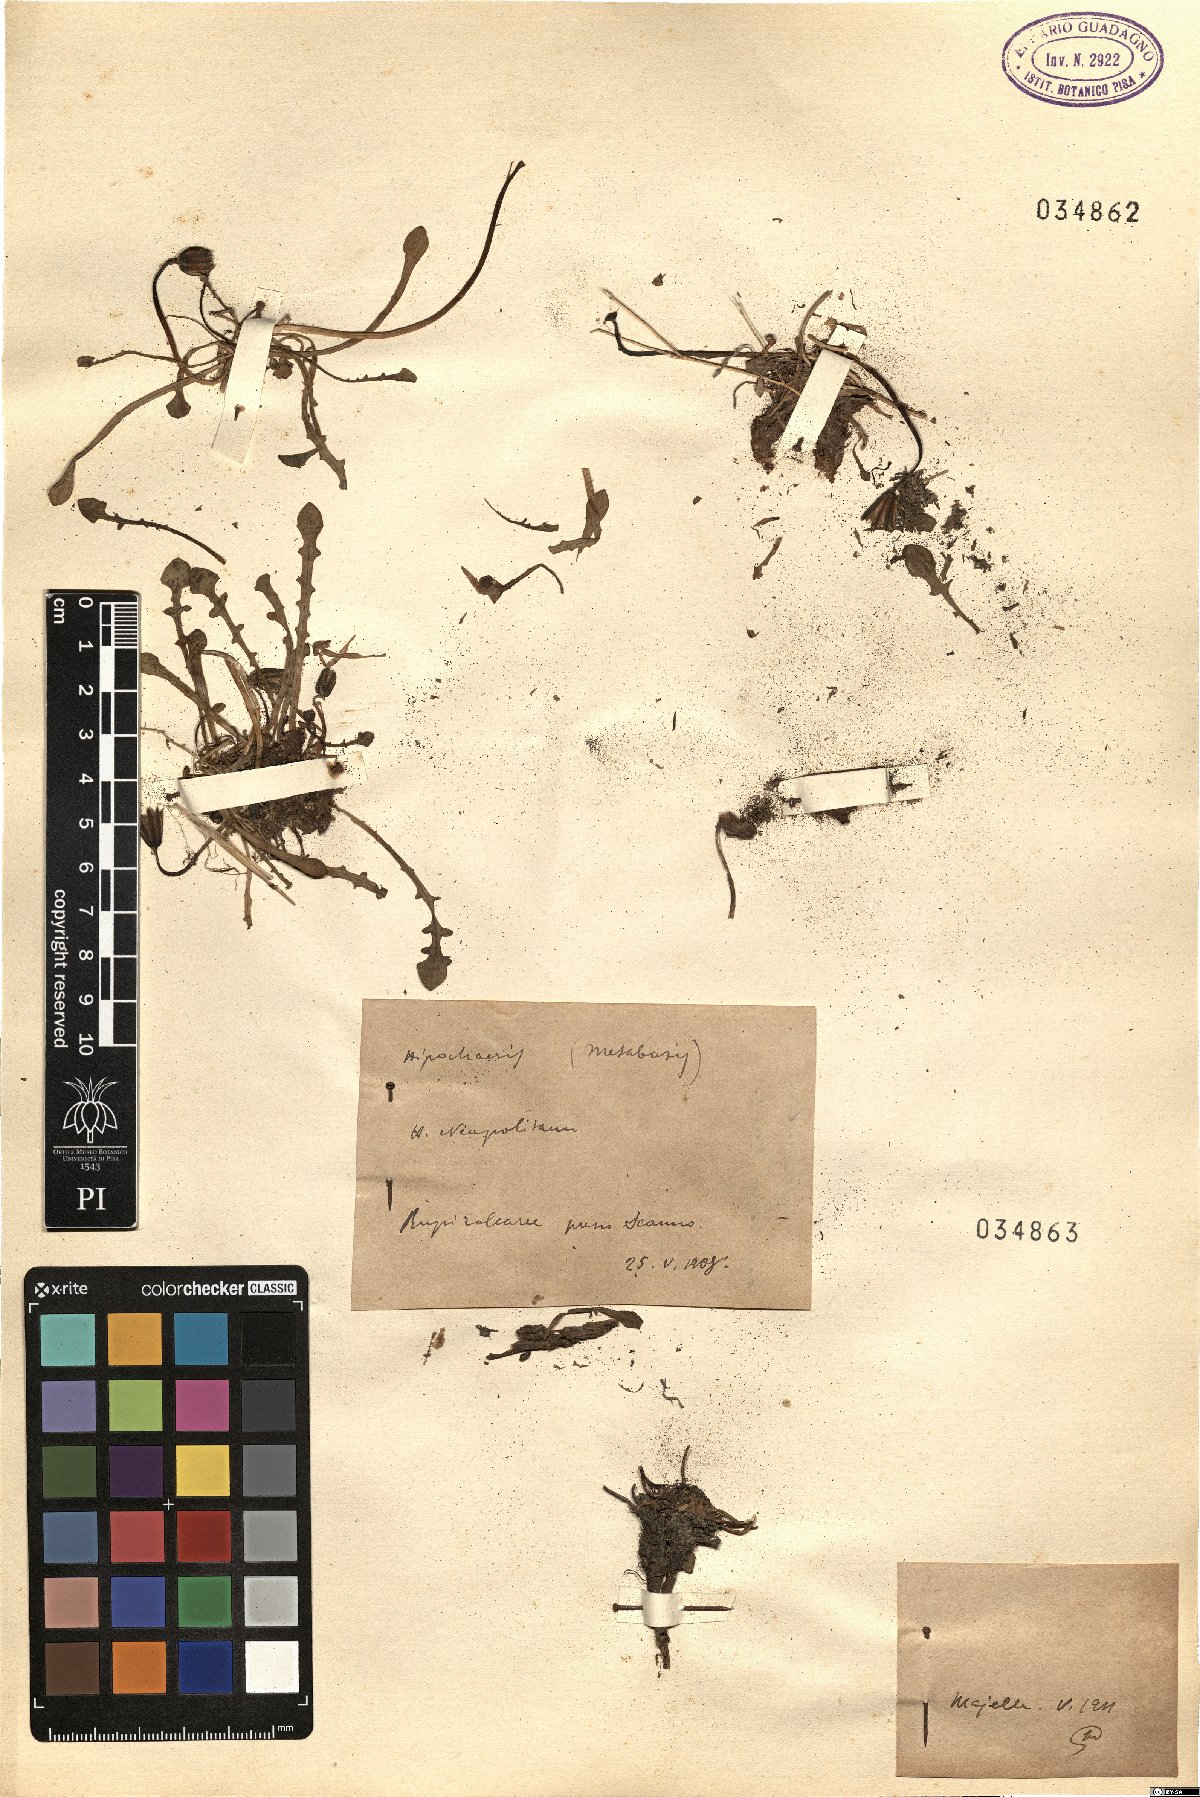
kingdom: Plantae
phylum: Tracheophyta
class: Magnoliopsida
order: Asterales
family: Asteraceae
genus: Hypochaeris
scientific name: Hypochaeris
